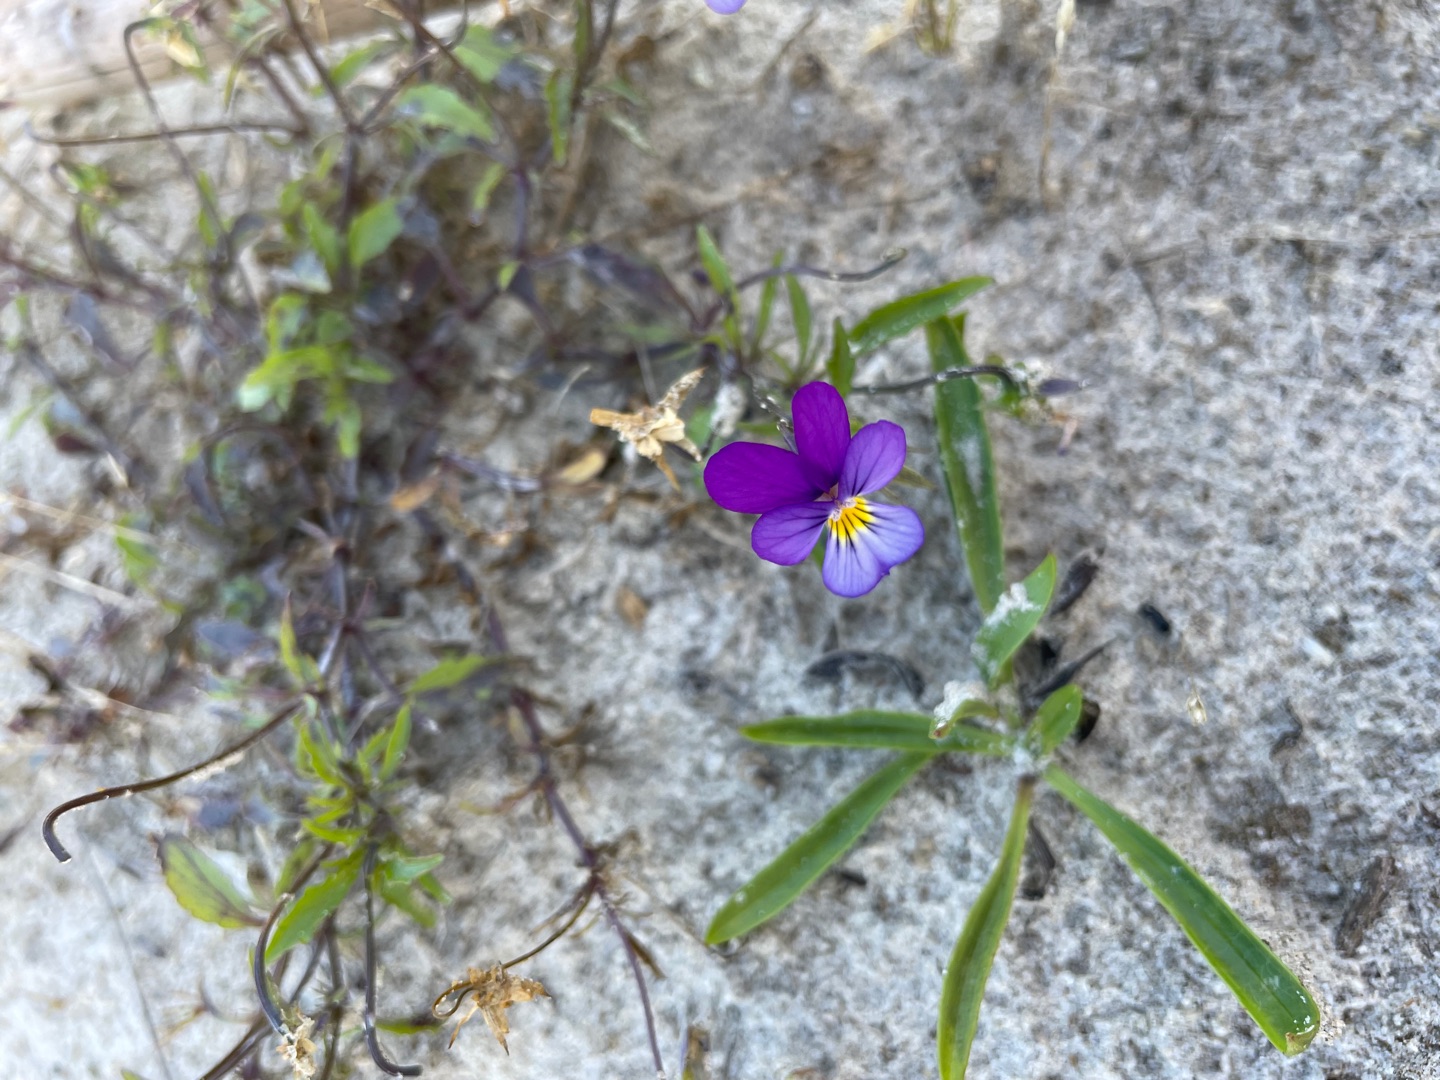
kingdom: Plantae
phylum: Tracheophyta
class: Magnoliopsida
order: Malpighiales
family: Violaceae
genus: Viola
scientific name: Viola tricolor
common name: Stedmoderblomst
